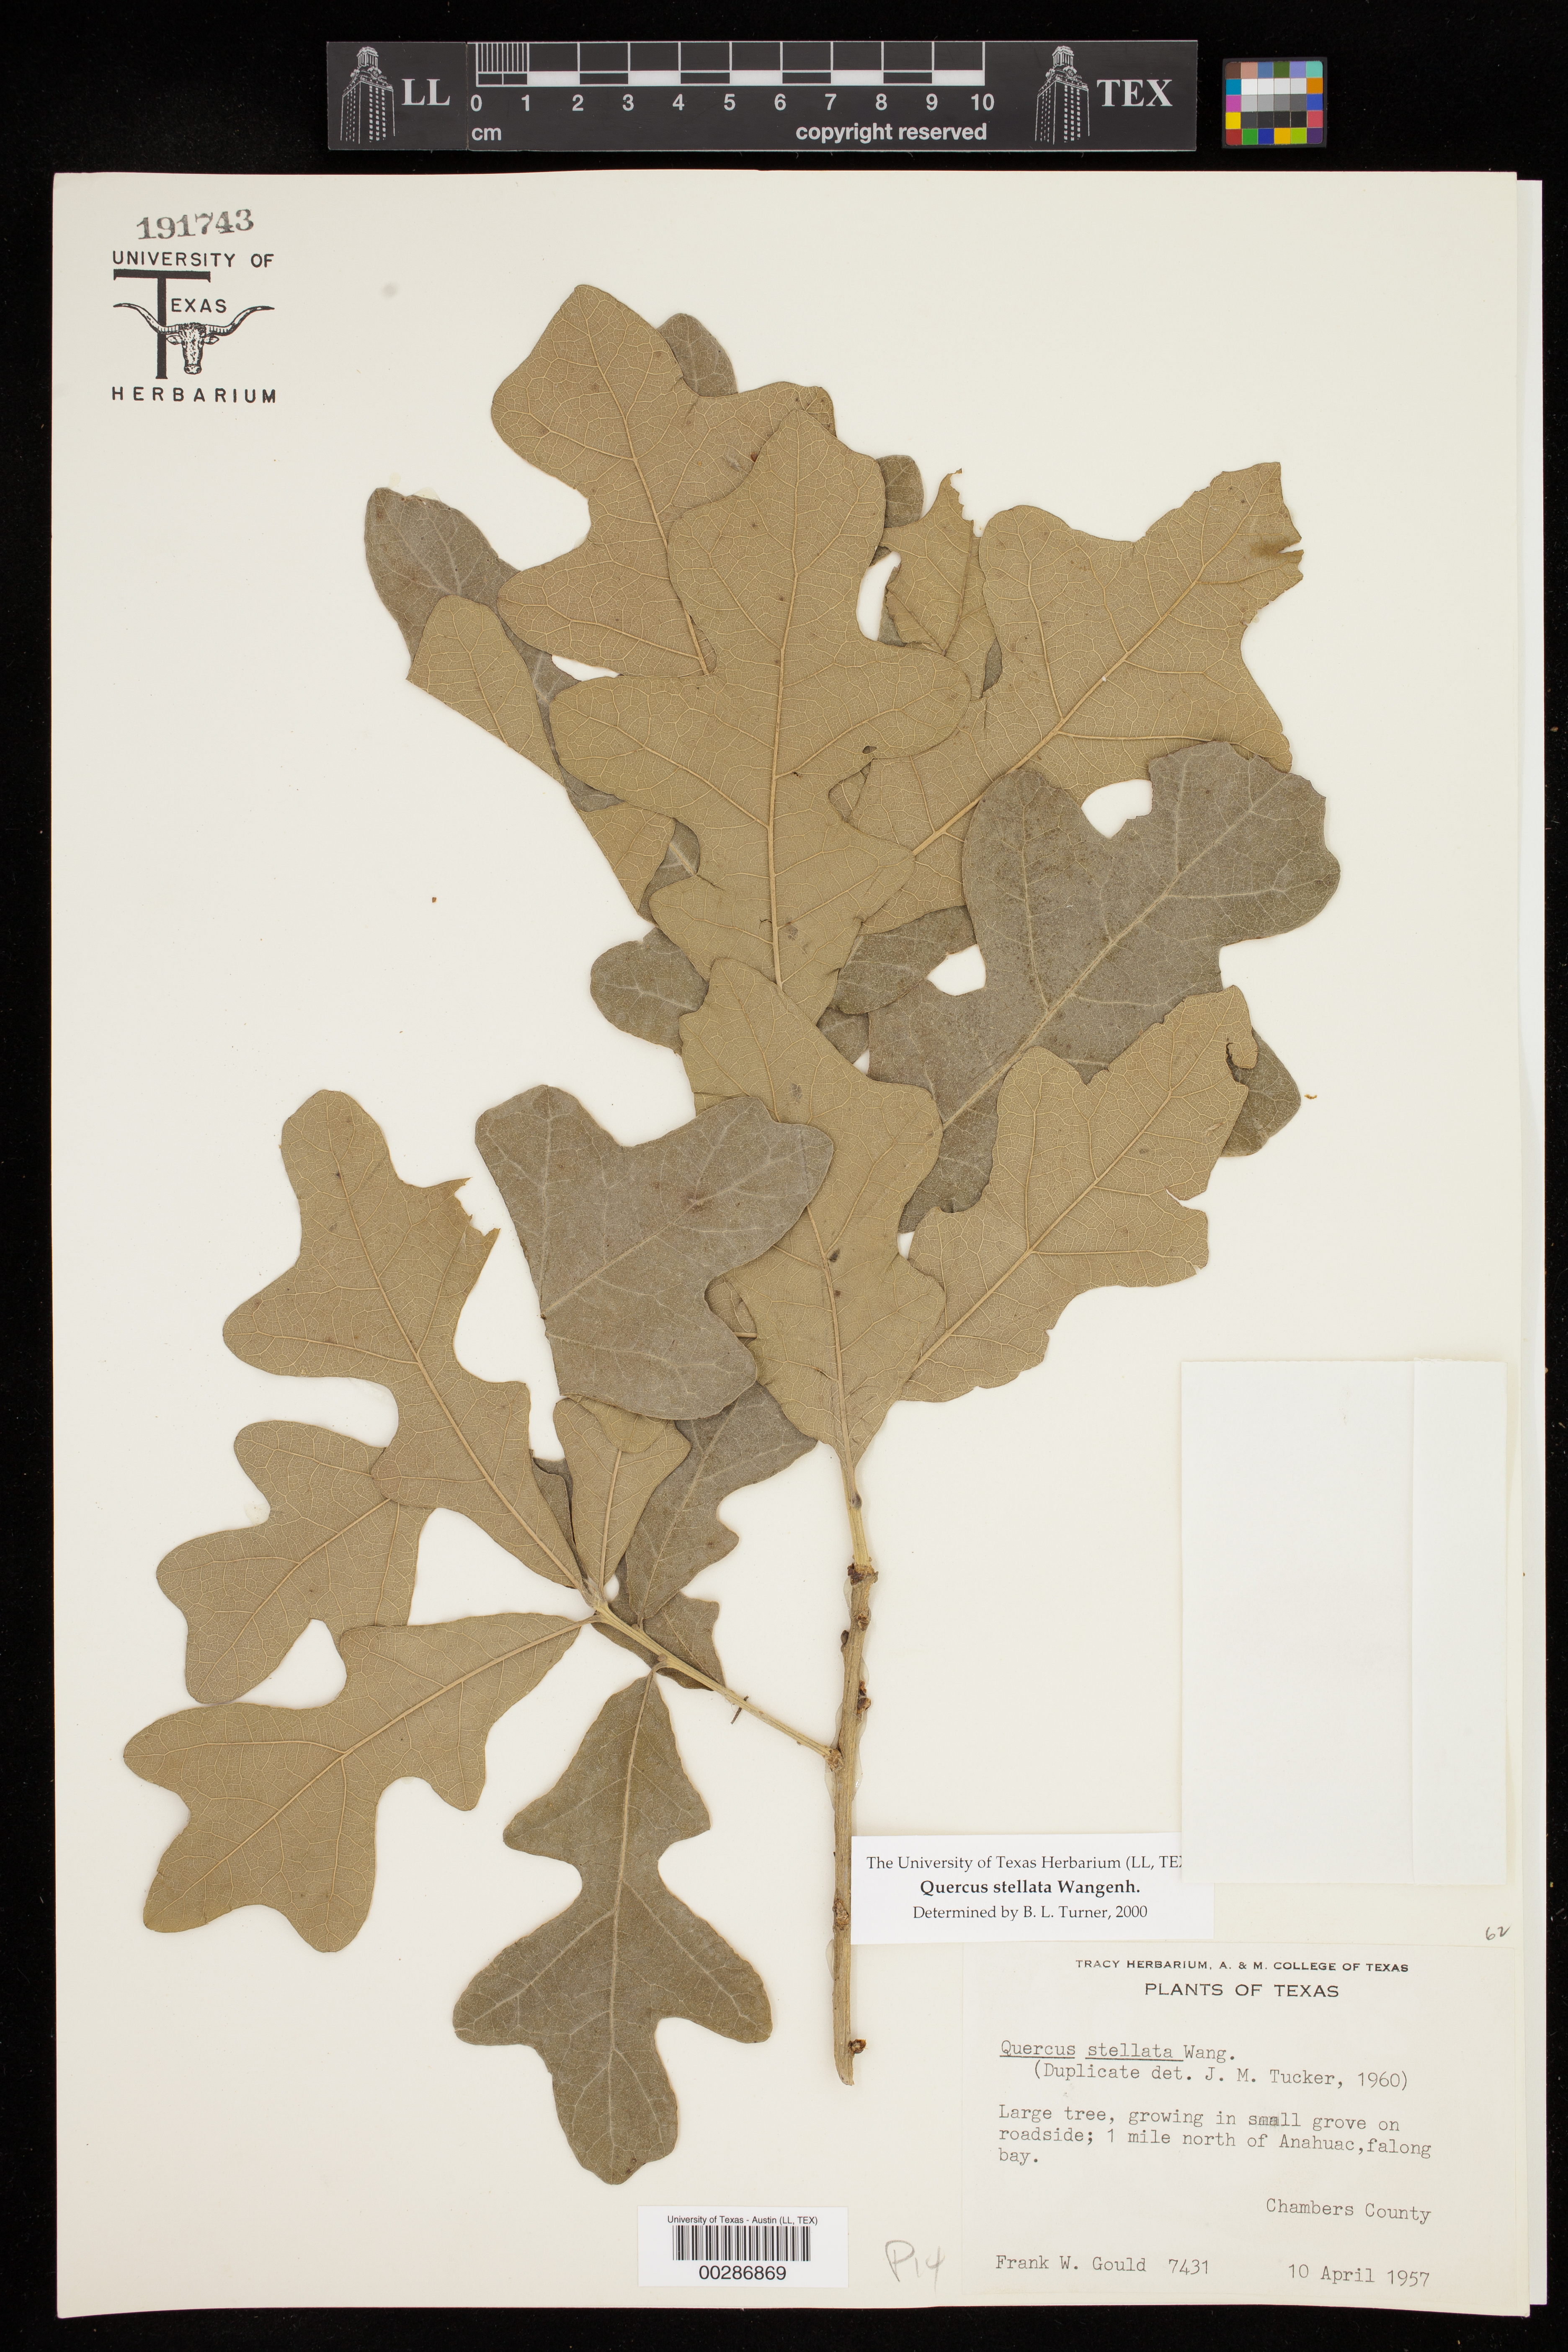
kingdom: Plantae
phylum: Tracheophyta
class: Magnoliopsida
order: Fagales
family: Fagaceae
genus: Quercus
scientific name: Quercus stellata
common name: Post oak
